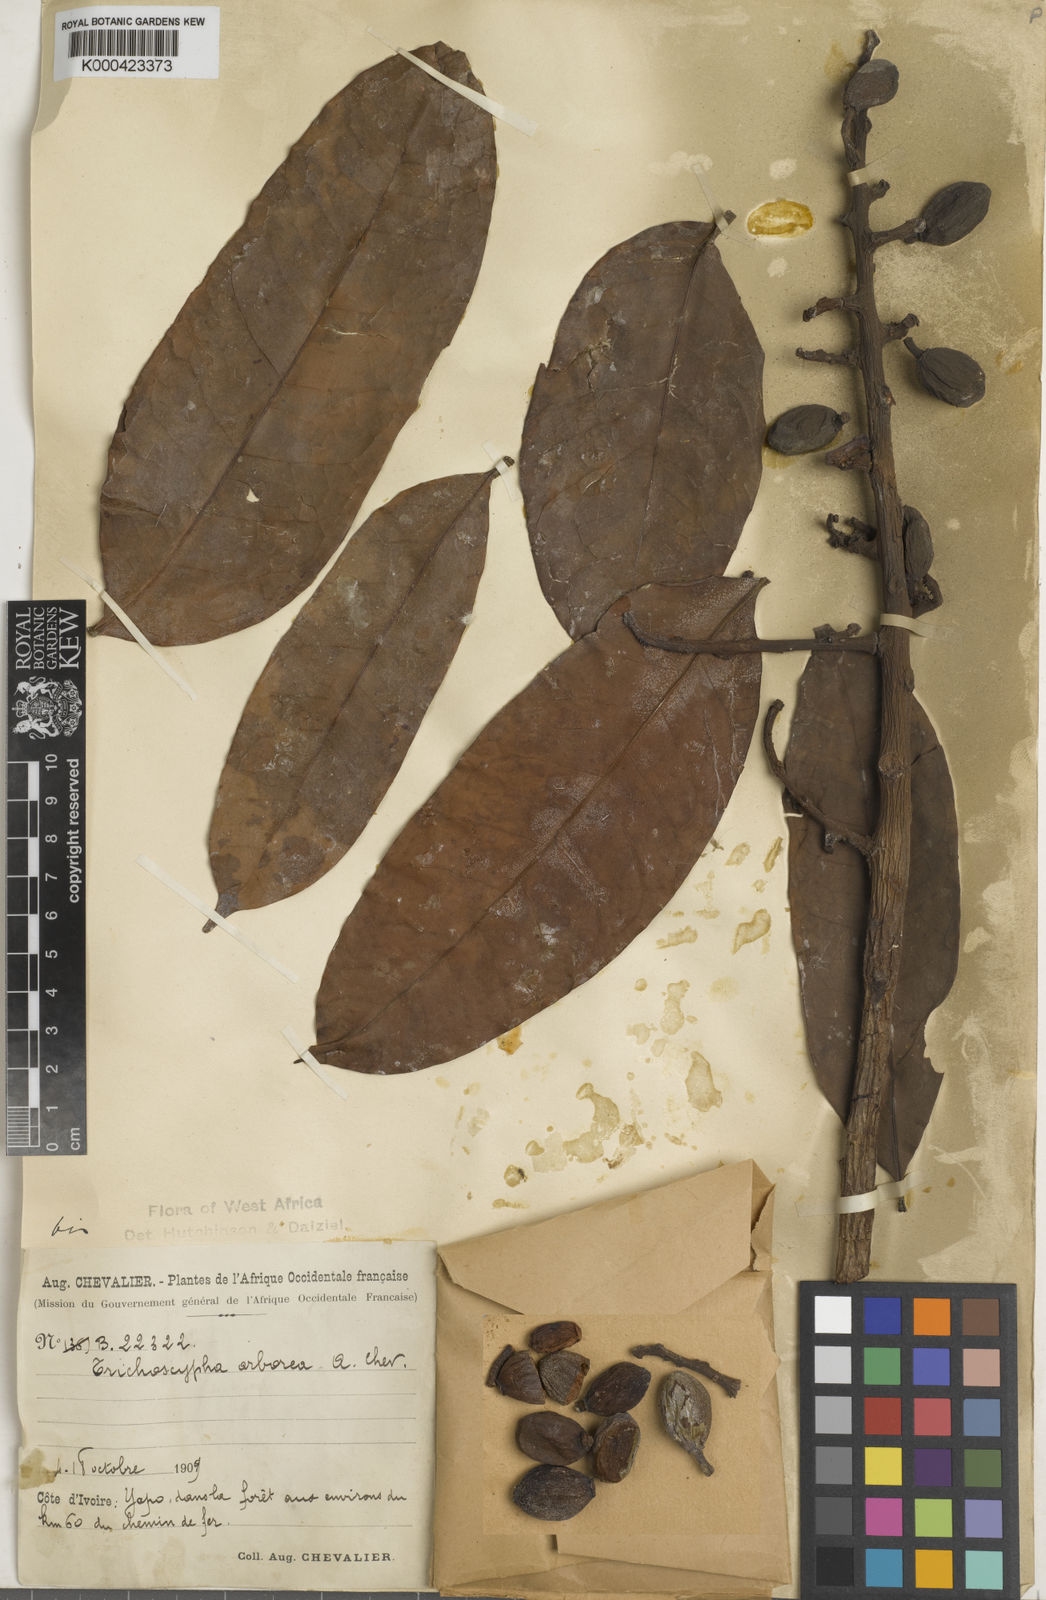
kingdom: Plantae
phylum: Tracheophyta
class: Magnoliopsida
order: Sapindales
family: Anacardiaceae
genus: Trichoscypha
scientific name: Trichoscypha arborea
